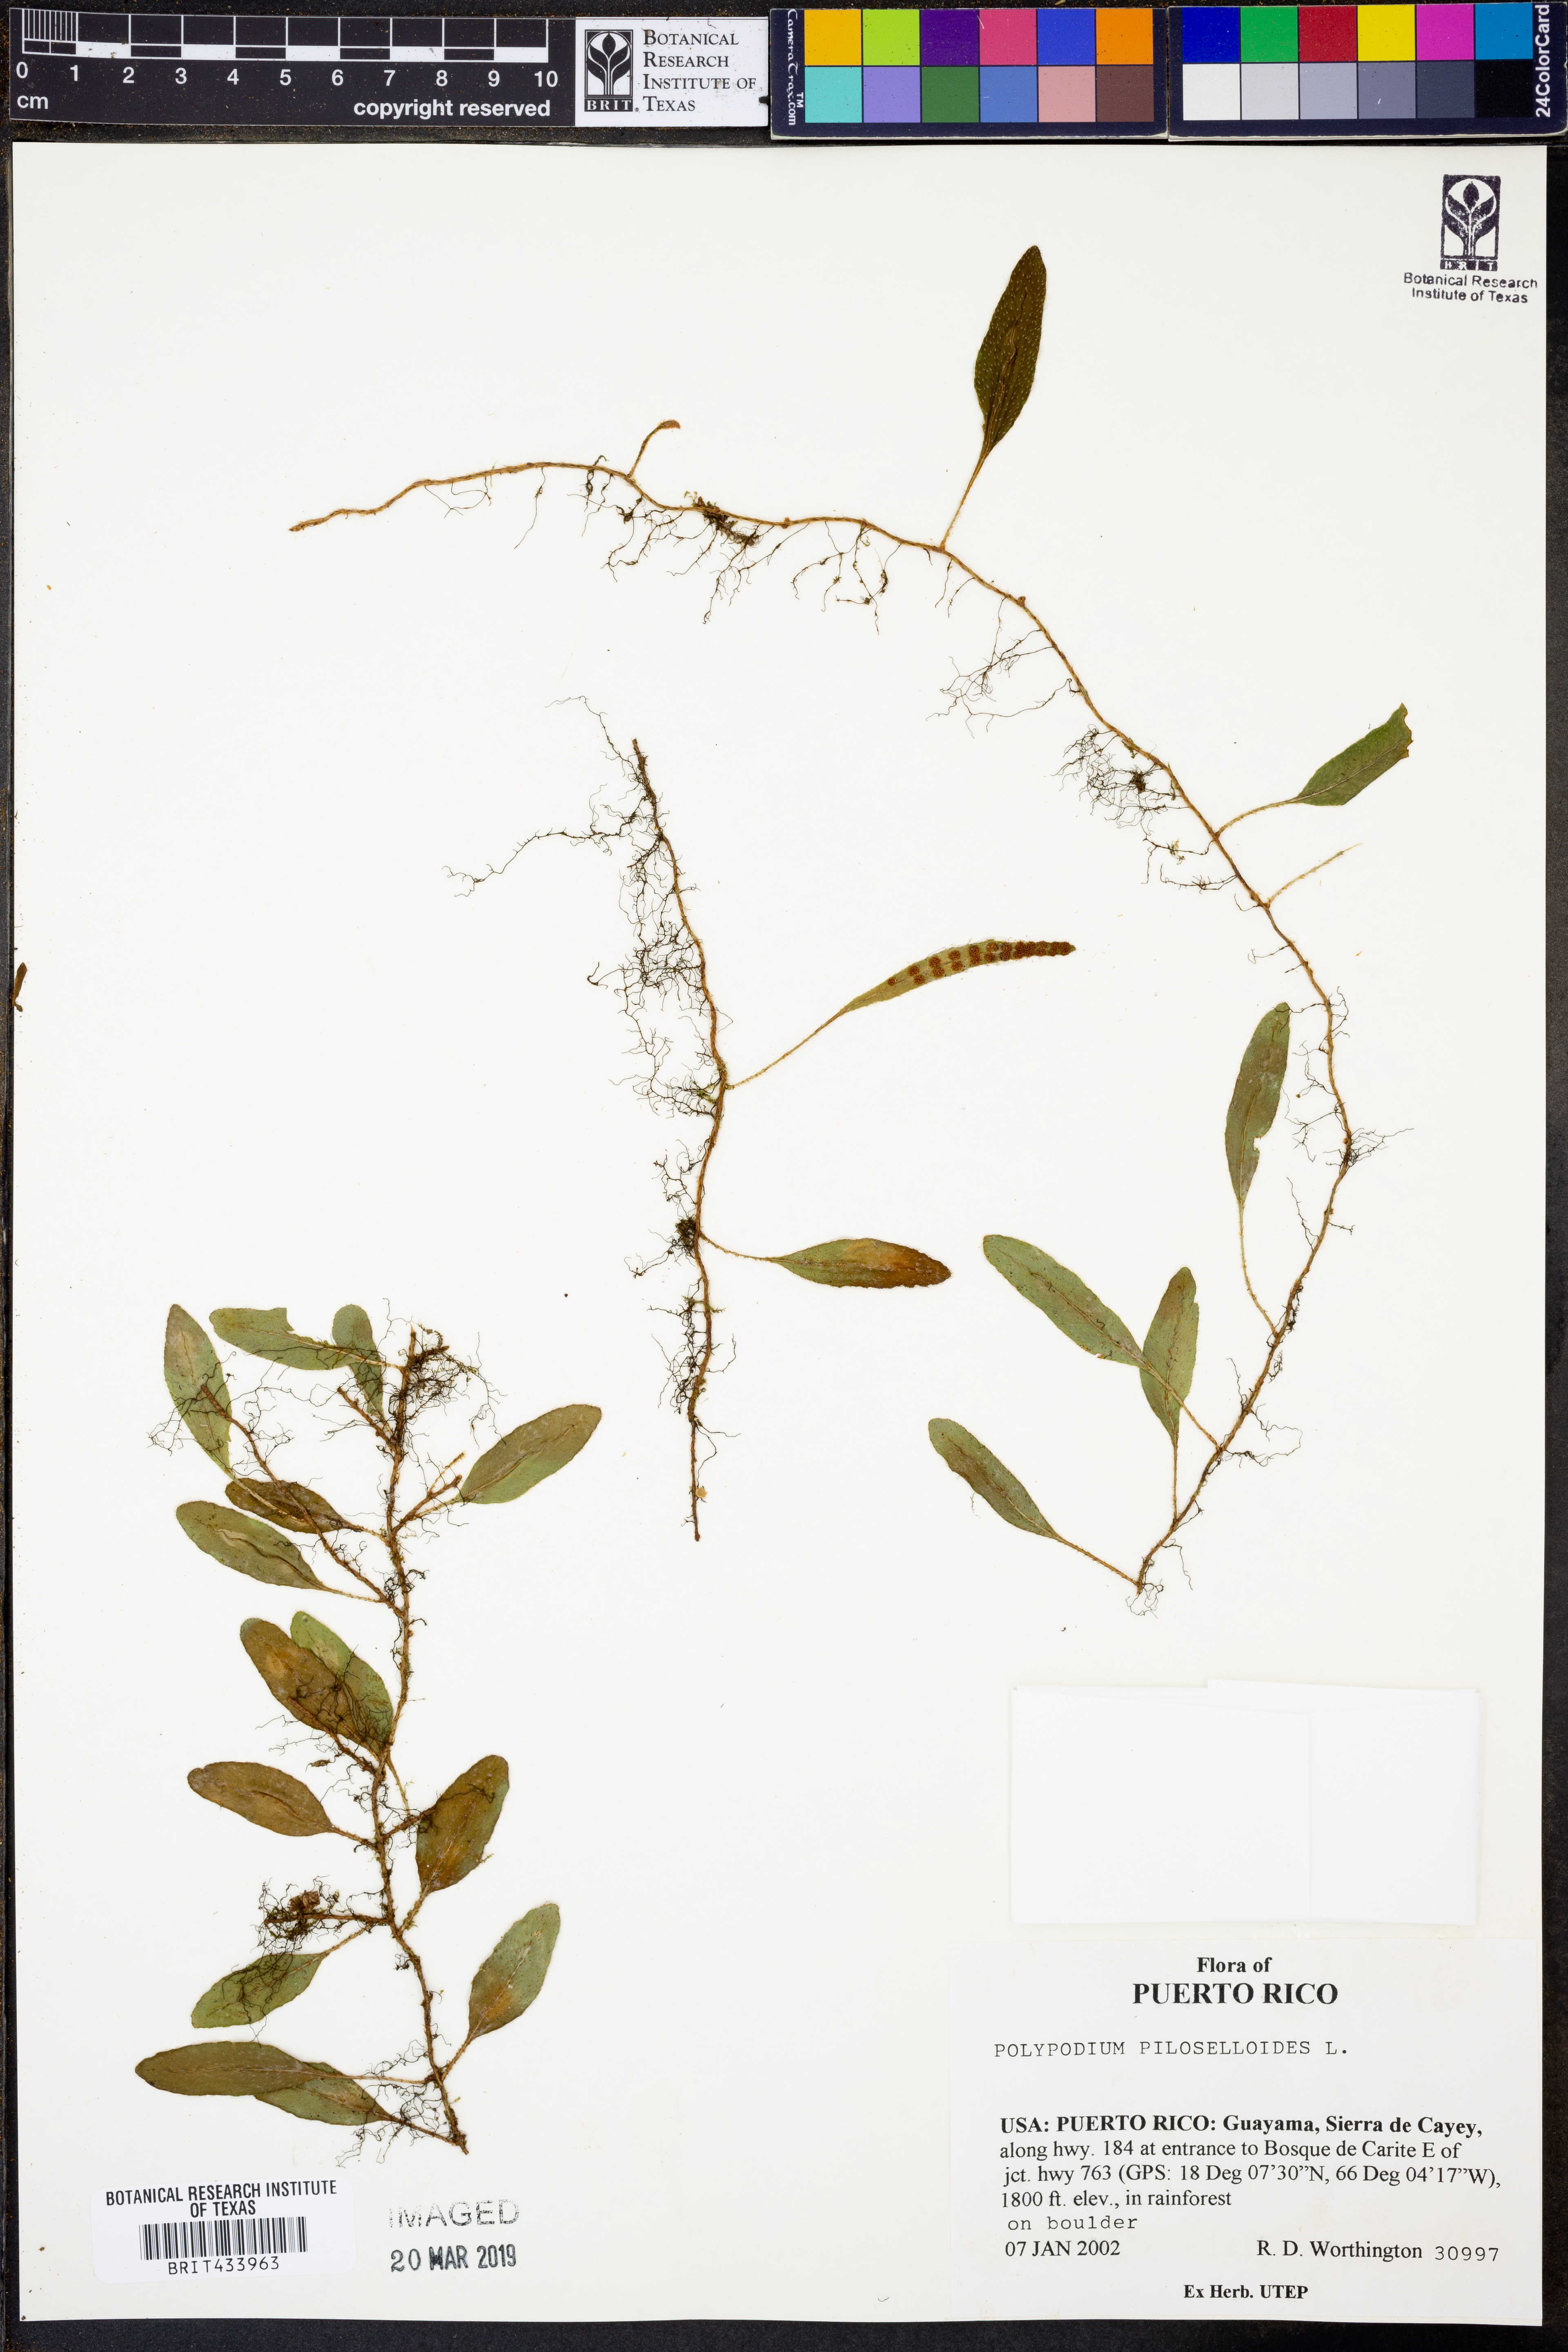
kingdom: Plantae
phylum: Tracheophyta
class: Polypodiopsida
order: Polypodiales
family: Polypodiaceae
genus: Microgramma
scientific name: Microgramma piloselloides
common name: Hairy snakefern
